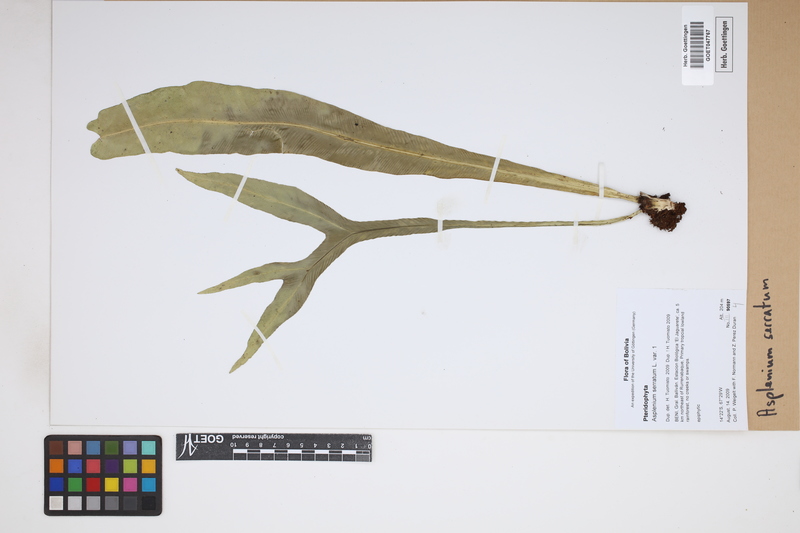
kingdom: Plantae
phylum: Tracheophyta
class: Polypodiopsida
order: Polypodiales
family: Aspleniaceae
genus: Asplenium
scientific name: Asplenium serratum
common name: Wild birdnest fern
